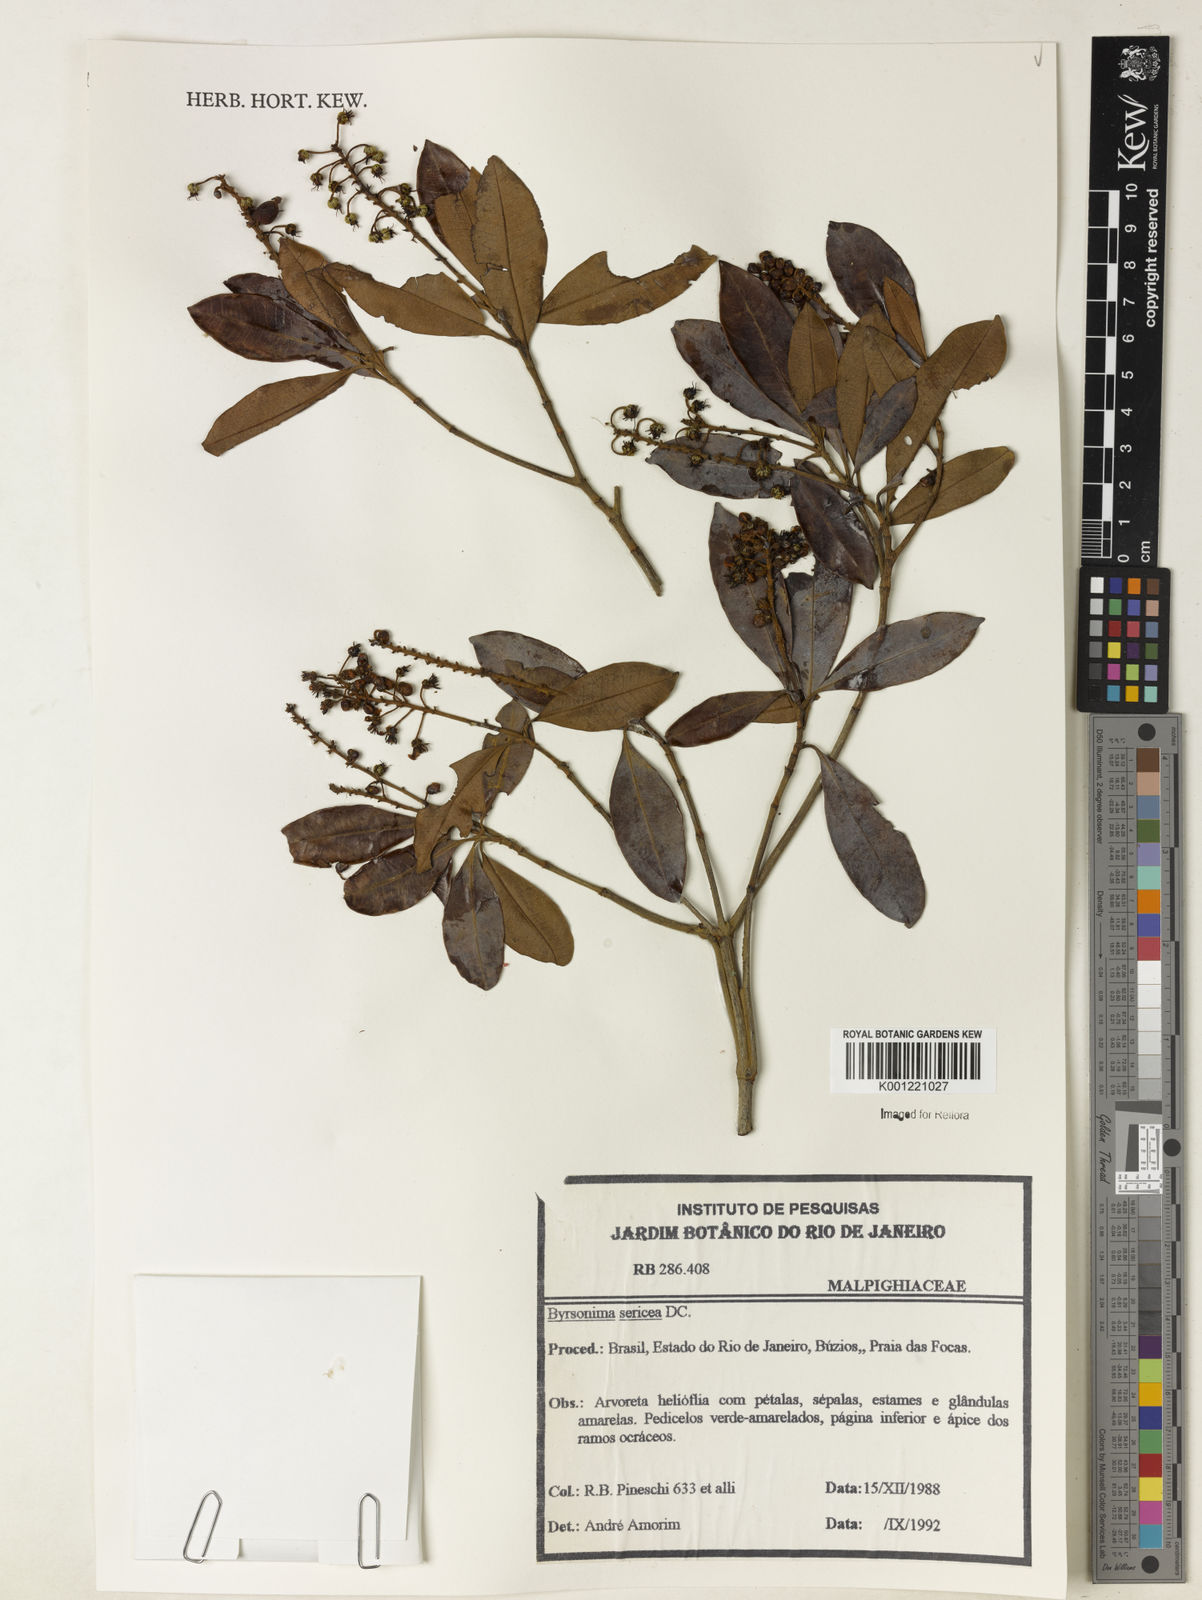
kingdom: Plantae
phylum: Tracheophyta
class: Magnoliopsida
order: Malpighiales
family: Malpighiaceae
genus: Byrsonima
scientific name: Byrsonima sericea
